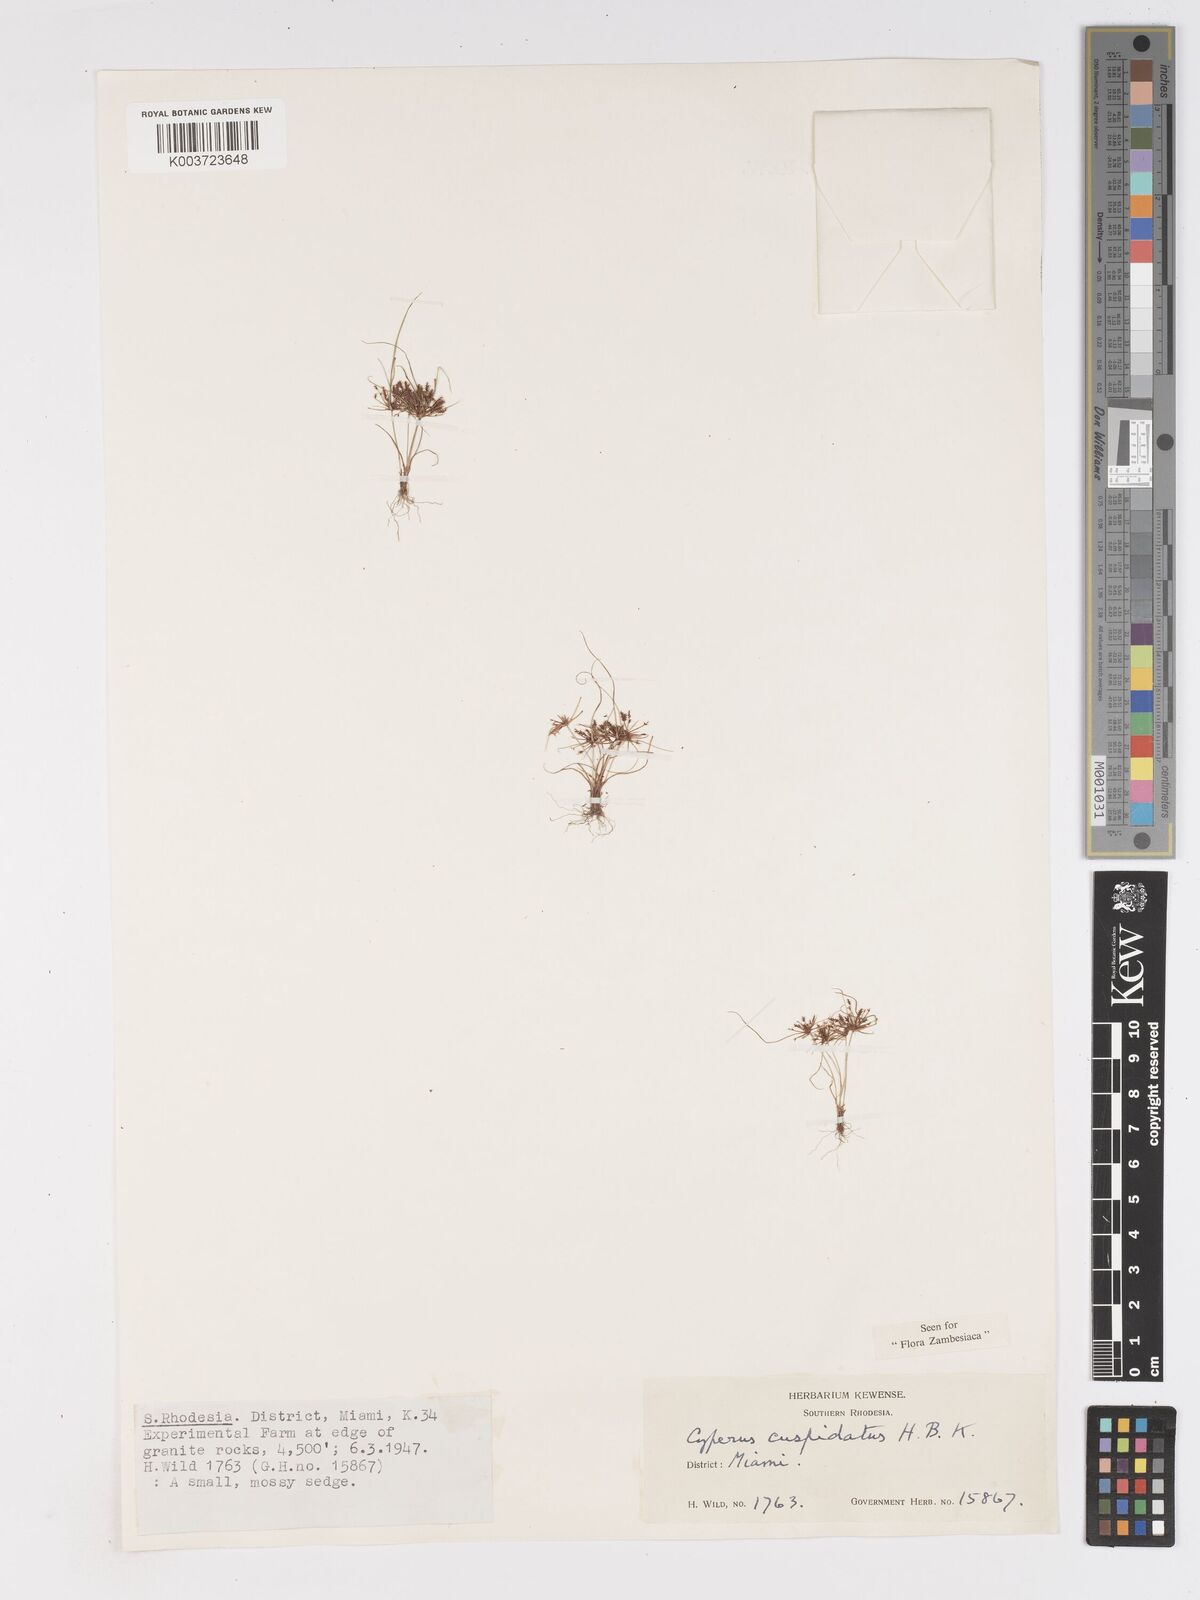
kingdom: Plantae
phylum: Tracheophyta
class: Liliopsida
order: Poales
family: Cyperaceae
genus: Cyperus
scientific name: Cyperus betafensis
